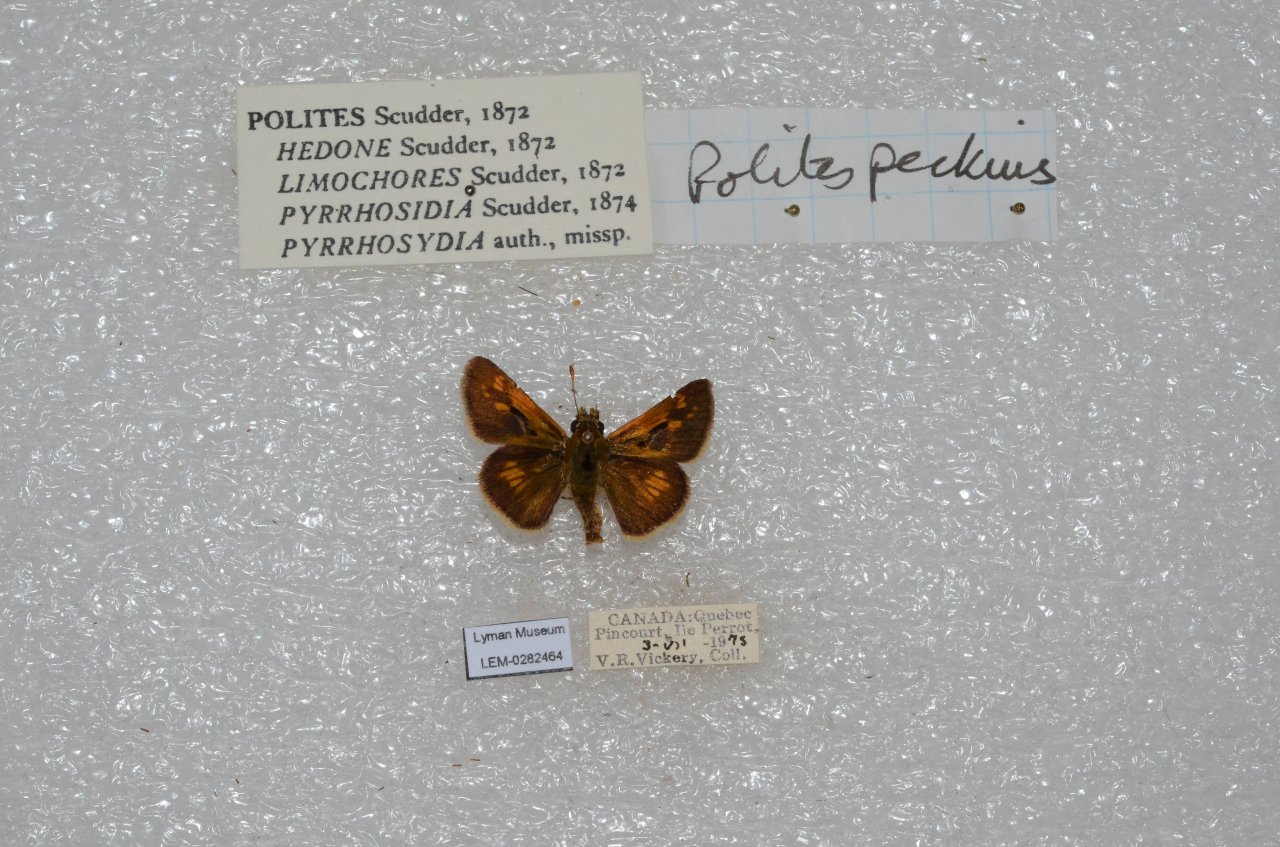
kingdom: Animalia
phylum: Arthropoda
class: Insecta
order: Lepidoptera
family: Hesperiidae
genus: Polites
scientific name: Polites coras
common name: Peck's Skipper
